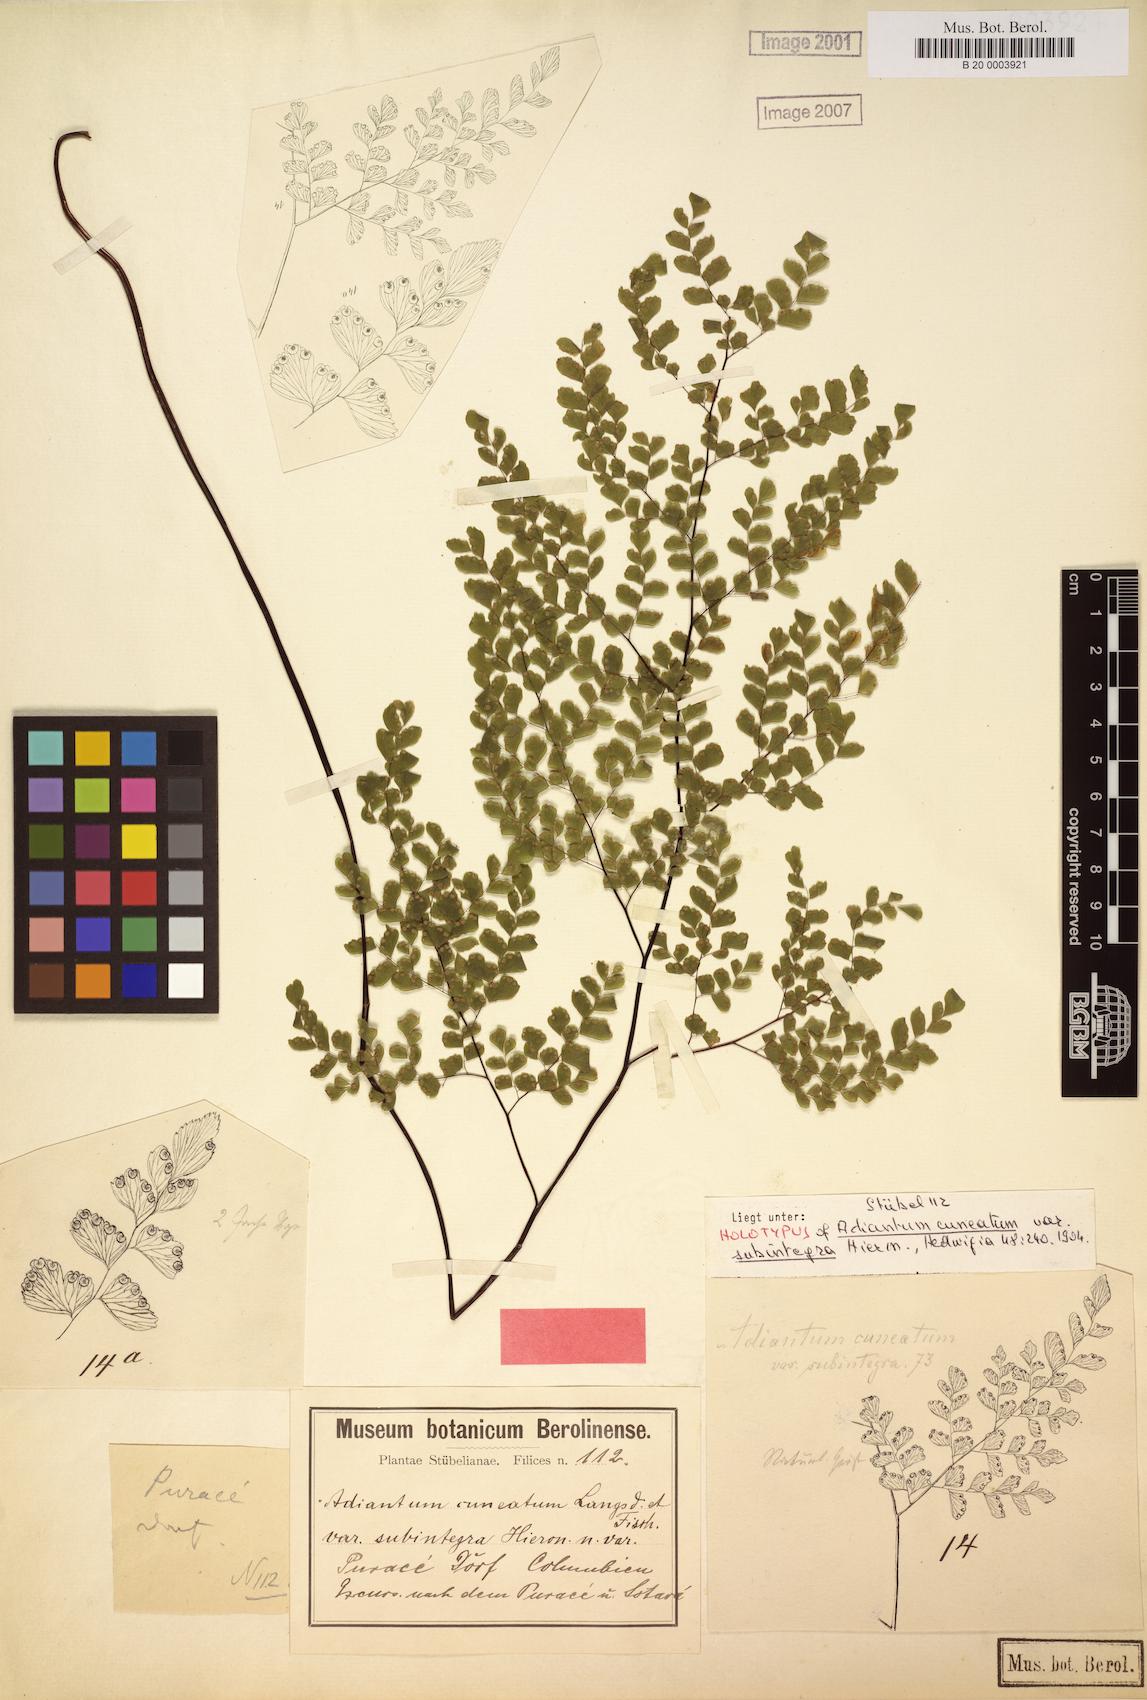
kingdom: Plantae
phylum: Tracheophyta
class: Polypodiopsida
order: Polypodiales
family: Pteridaceae
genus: Adiantum
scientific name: Adiantum raddianum
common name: Delta maidenhair fern
